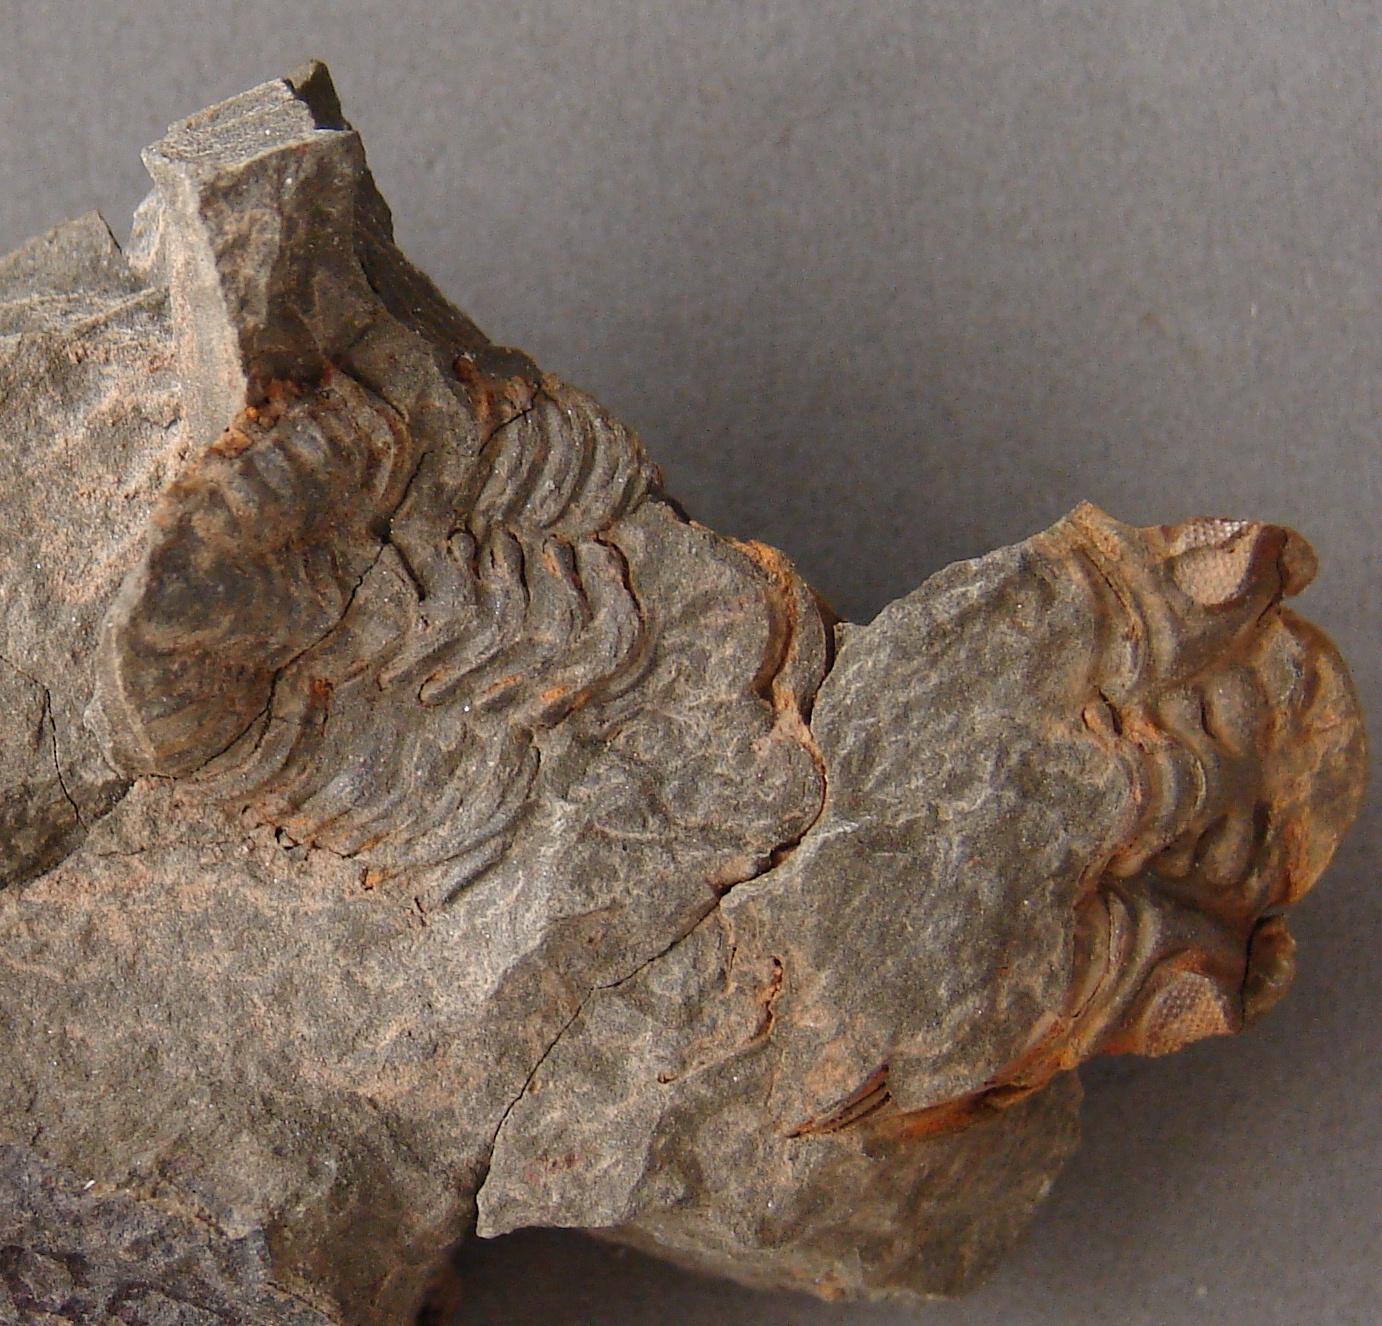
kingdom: Animalia
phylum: Arthropoda
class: Trilobita
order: Phacopida
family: Acastidae
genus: Kayserops
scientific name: Kayserops daleidensis
